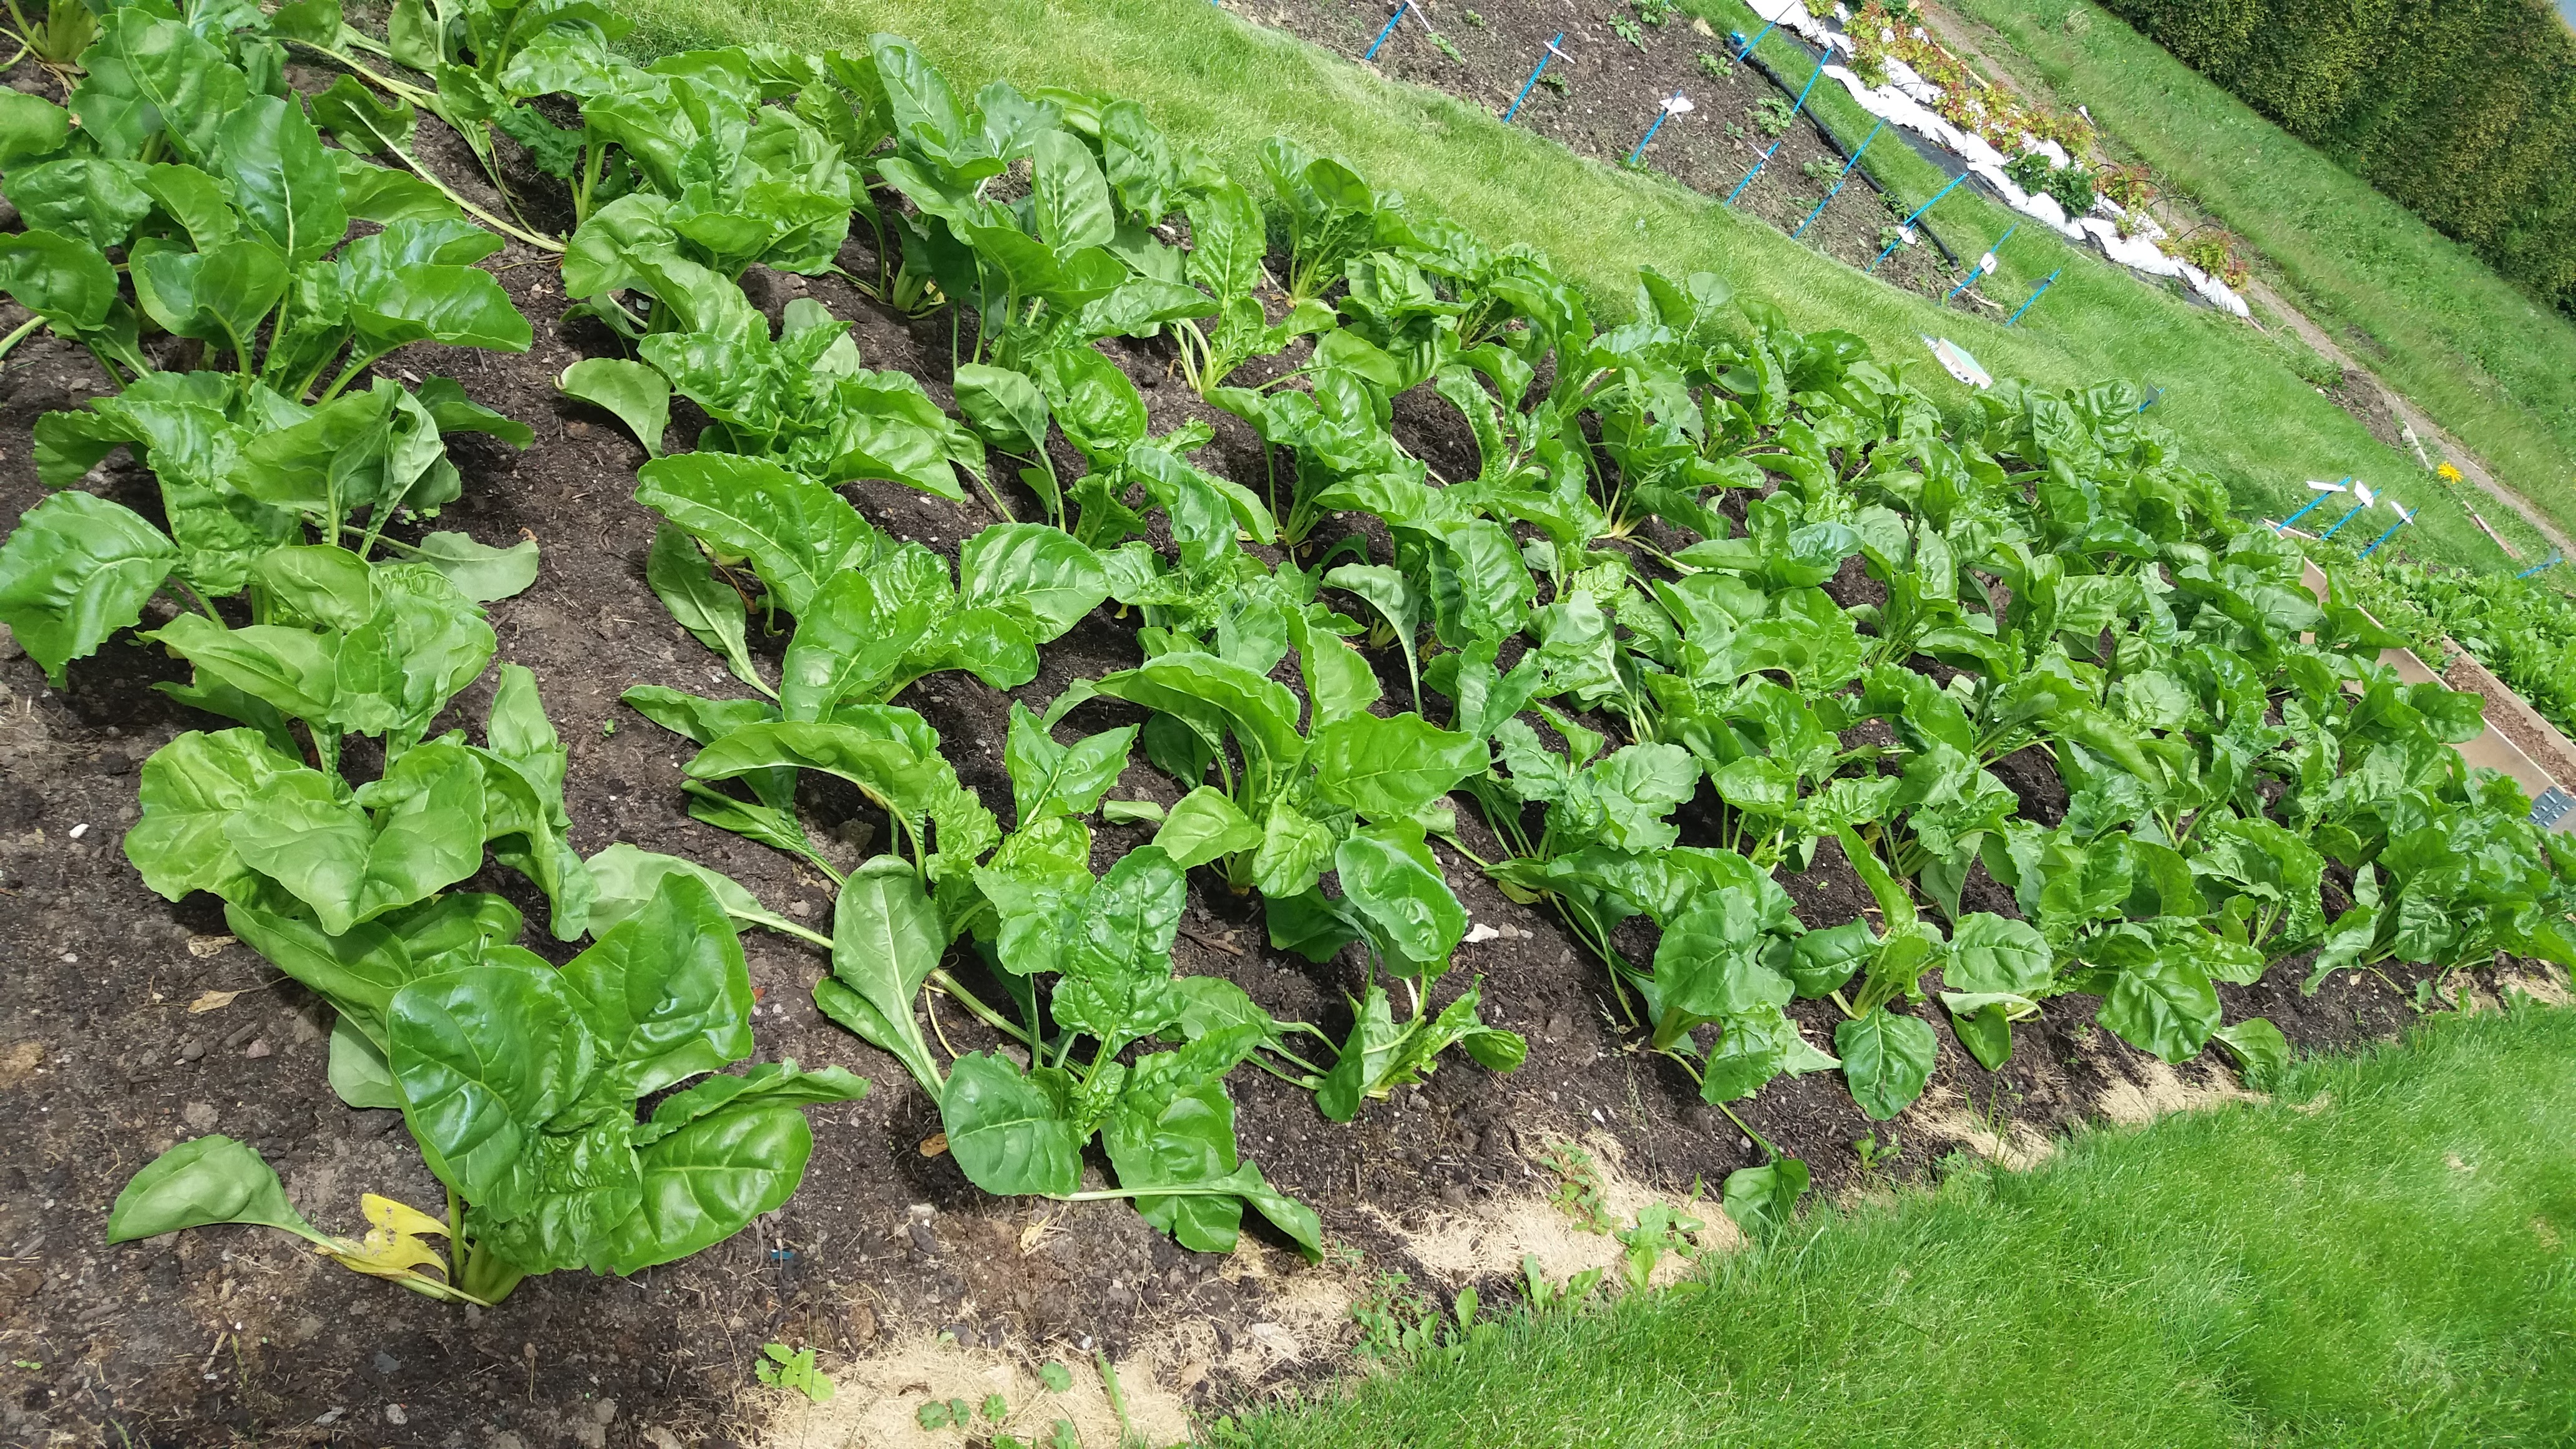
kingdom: Plantae
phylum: Tracheophyta
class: Magnoliopsida
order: Caryophyllales
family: Amaranthaceae
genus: Beta
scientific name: Beta vulgaris
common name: Beet
